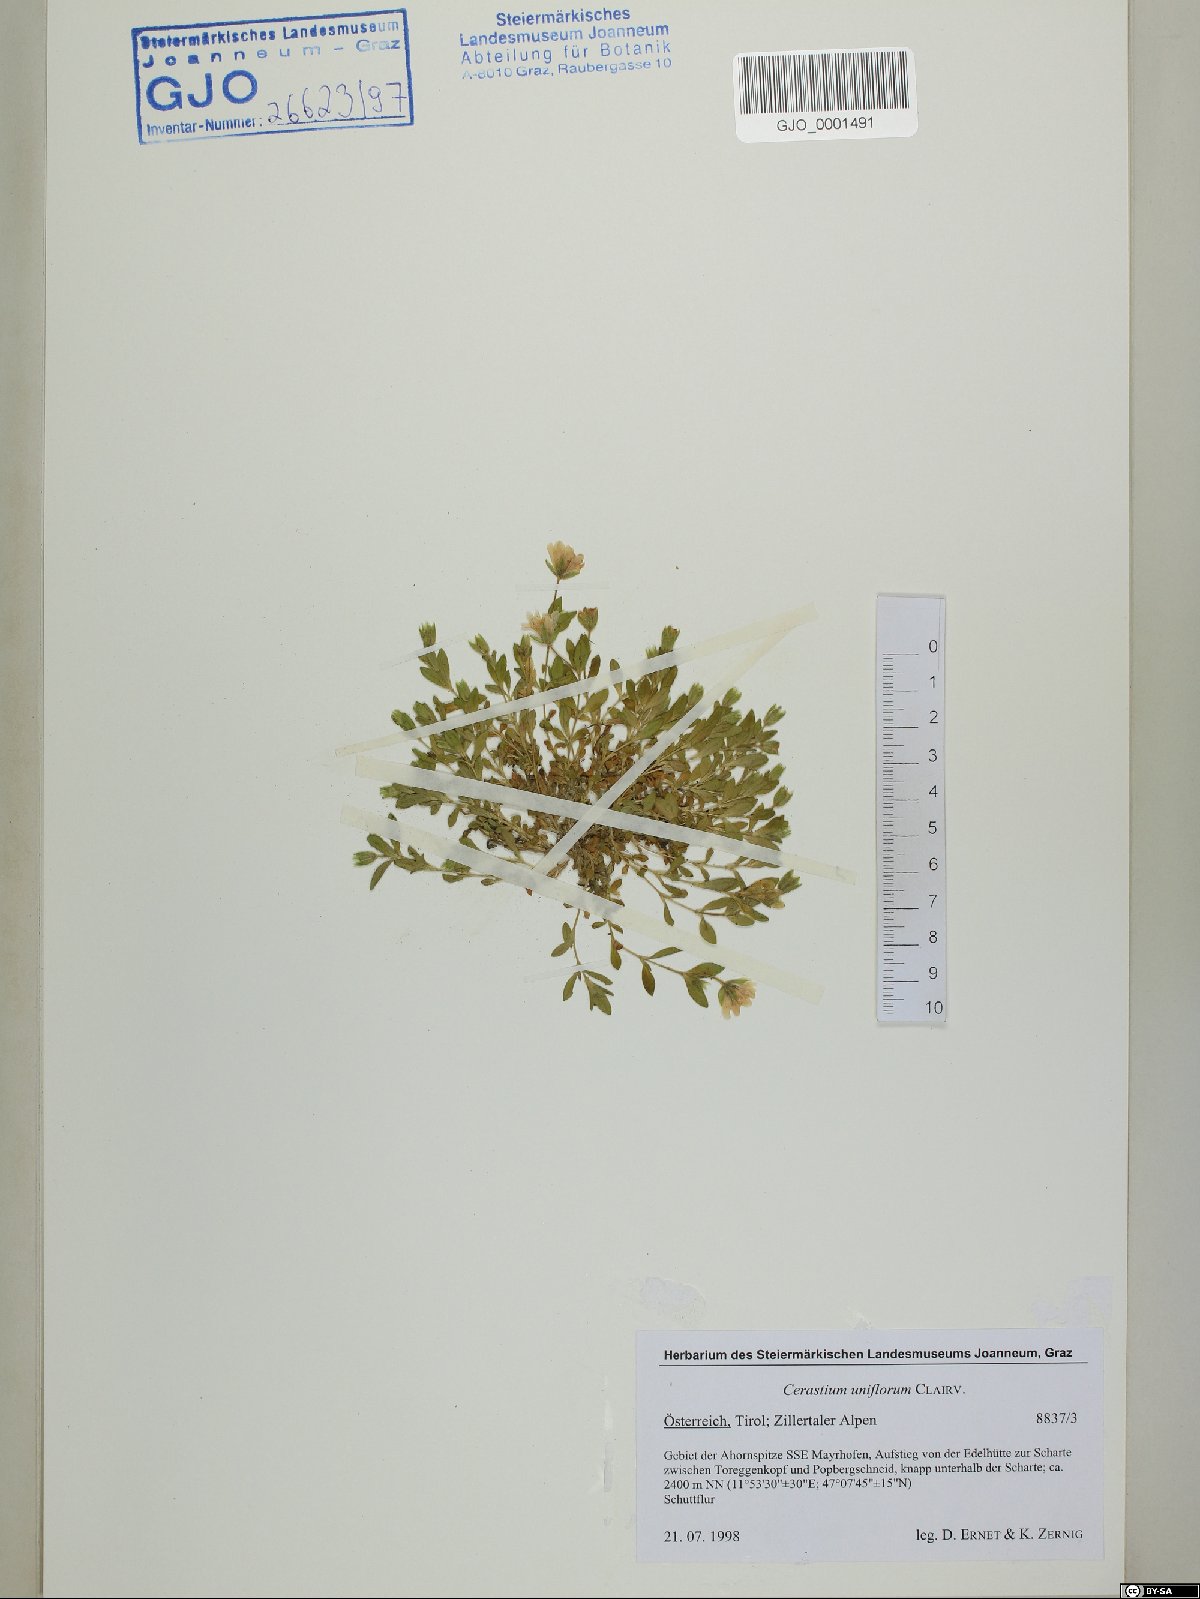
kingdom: Plantae
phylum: Tracheophyta
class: Magnoliopsida
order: Caryophyllales
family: Caryophyllaceae
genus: Cerastium
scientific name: Cerastium uniflorum
